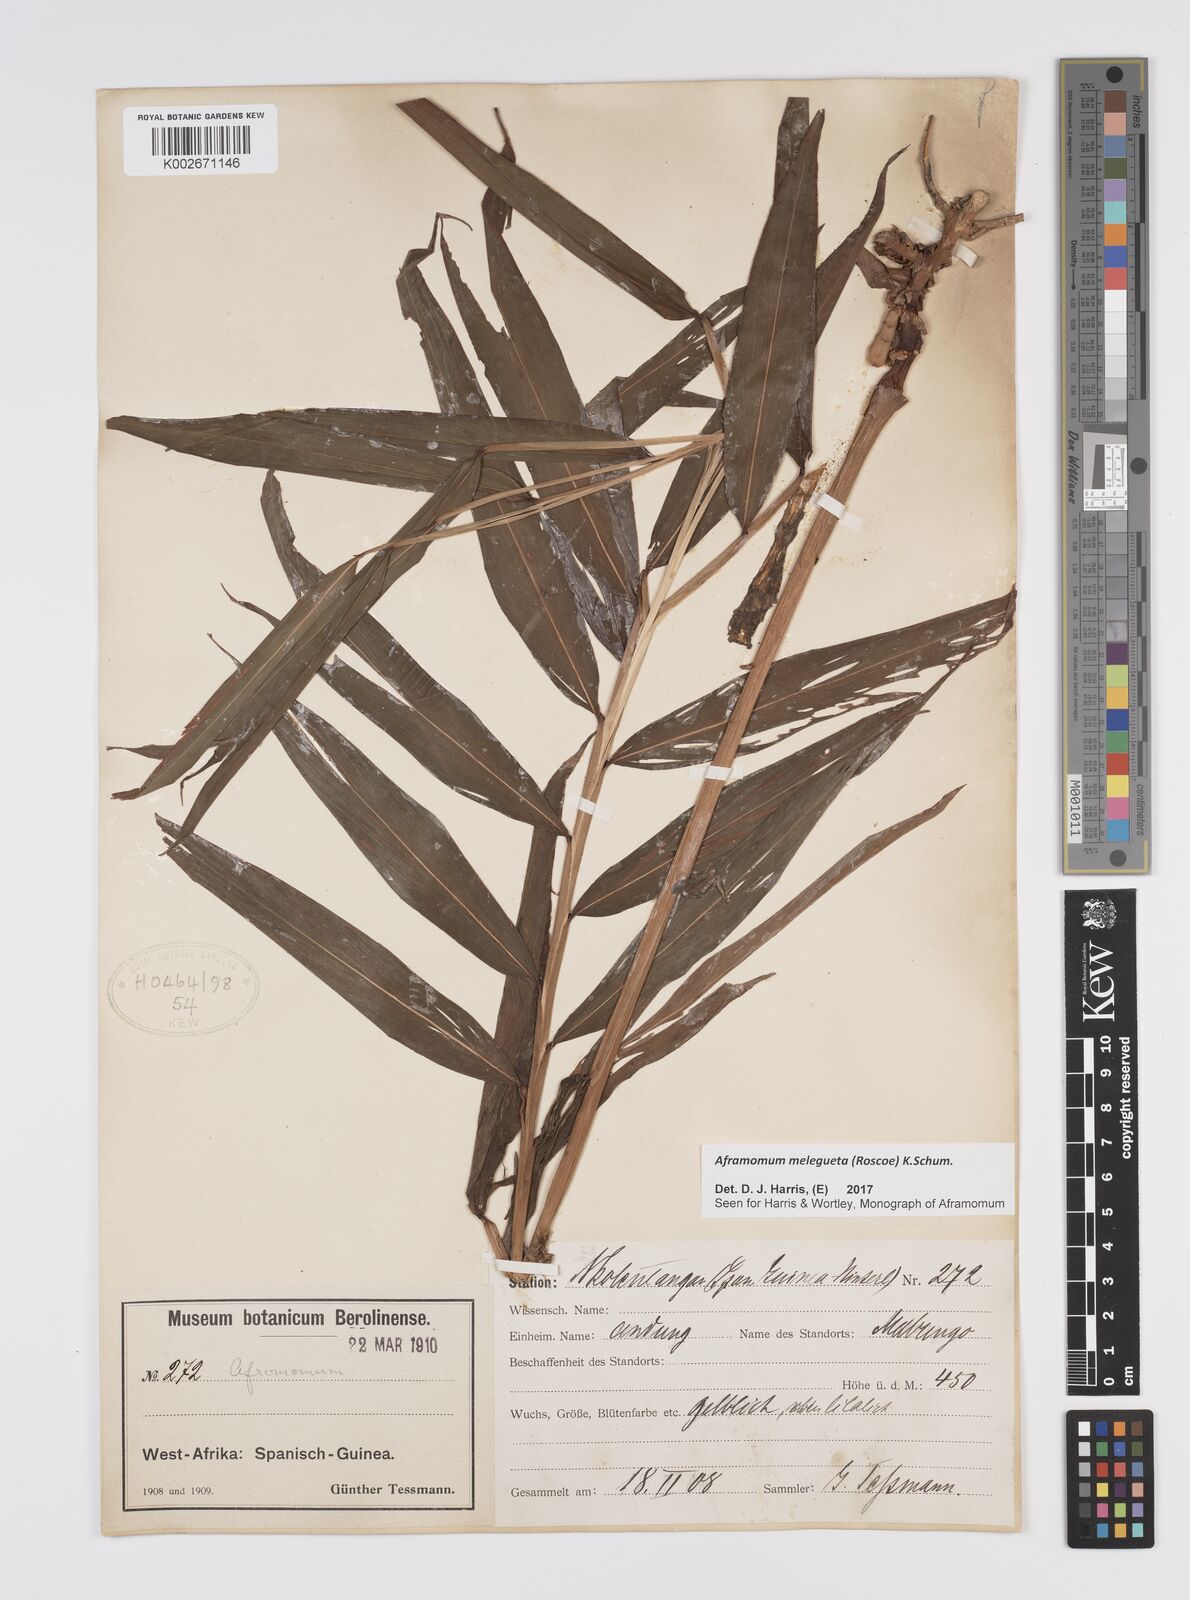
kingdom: Plantae
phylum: Tracheophyta
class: Liliopsida
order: Zingiberales
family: Zingiberaceae
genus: Aframomum
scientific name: Aframomum melegueta
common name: Grains of paradise
